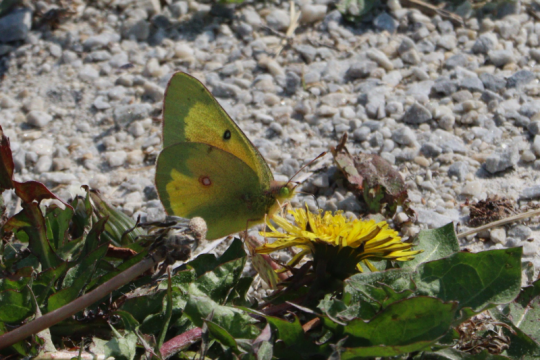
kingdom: Animalia
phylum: Arthropoda
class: Insecta
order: Lepidoptera
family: Pieridae
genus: Colias
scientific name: Colias eurytheme
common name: Orange Sulphur
